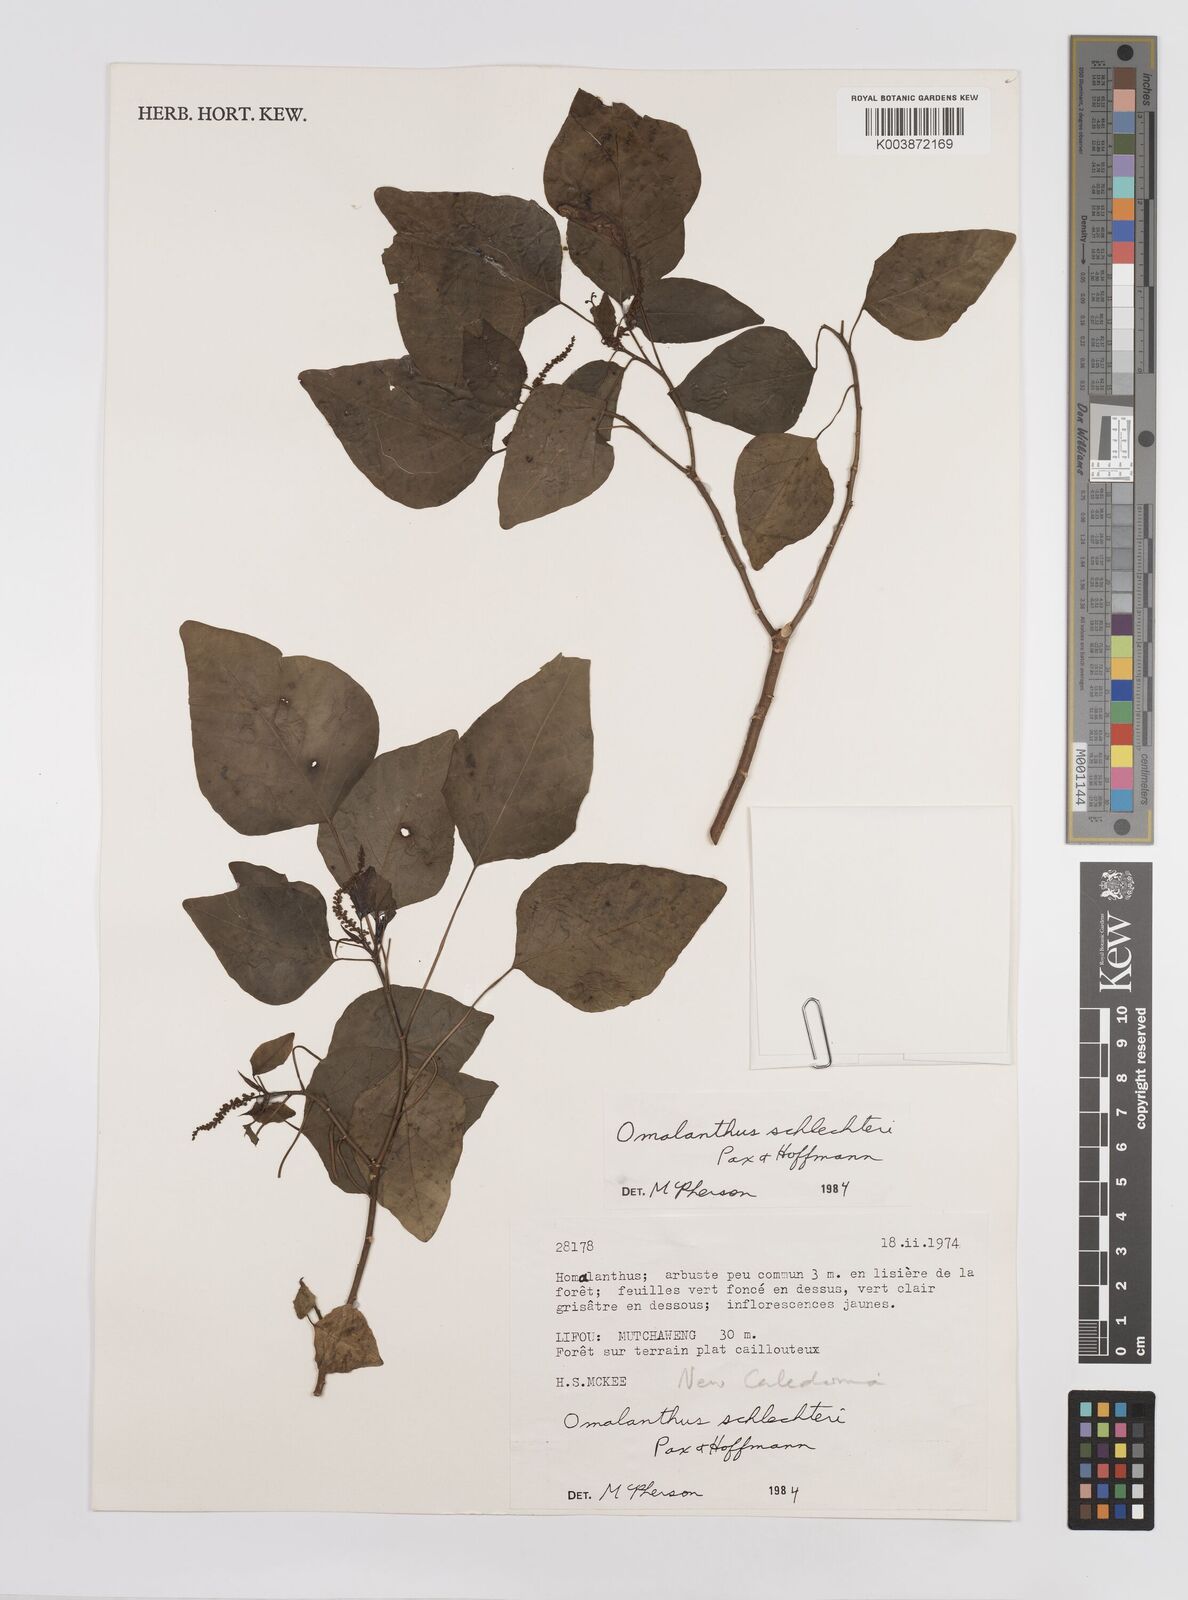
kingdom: Plantae
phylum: Tracheophyta
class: Magnoliopsida
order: Malpighiales
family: Euphorbiaceae
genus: Homalanthus
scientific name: Homalanthus schlechteri
